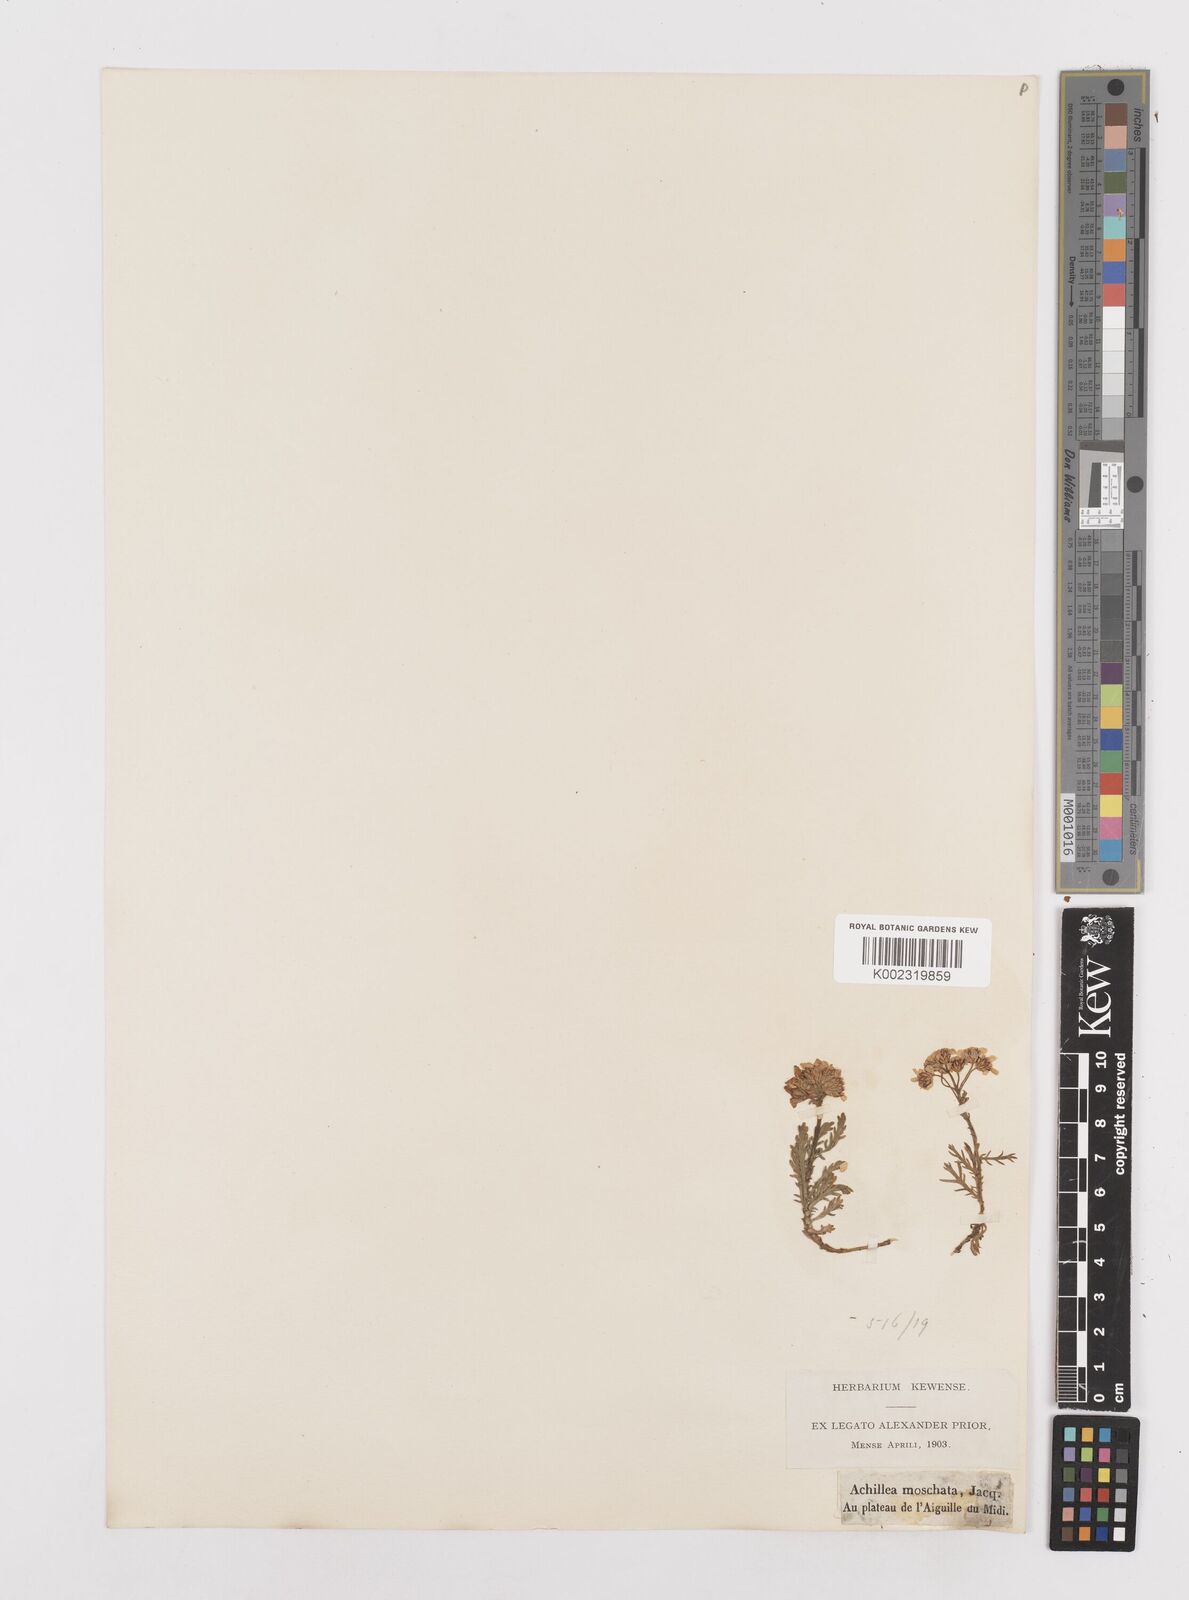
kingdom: Plantae
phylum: Tracheophyta
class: Magnoliopsida
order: Asterales
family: Asteraceae
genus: Achillea
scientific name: Achillea erba-rotta
